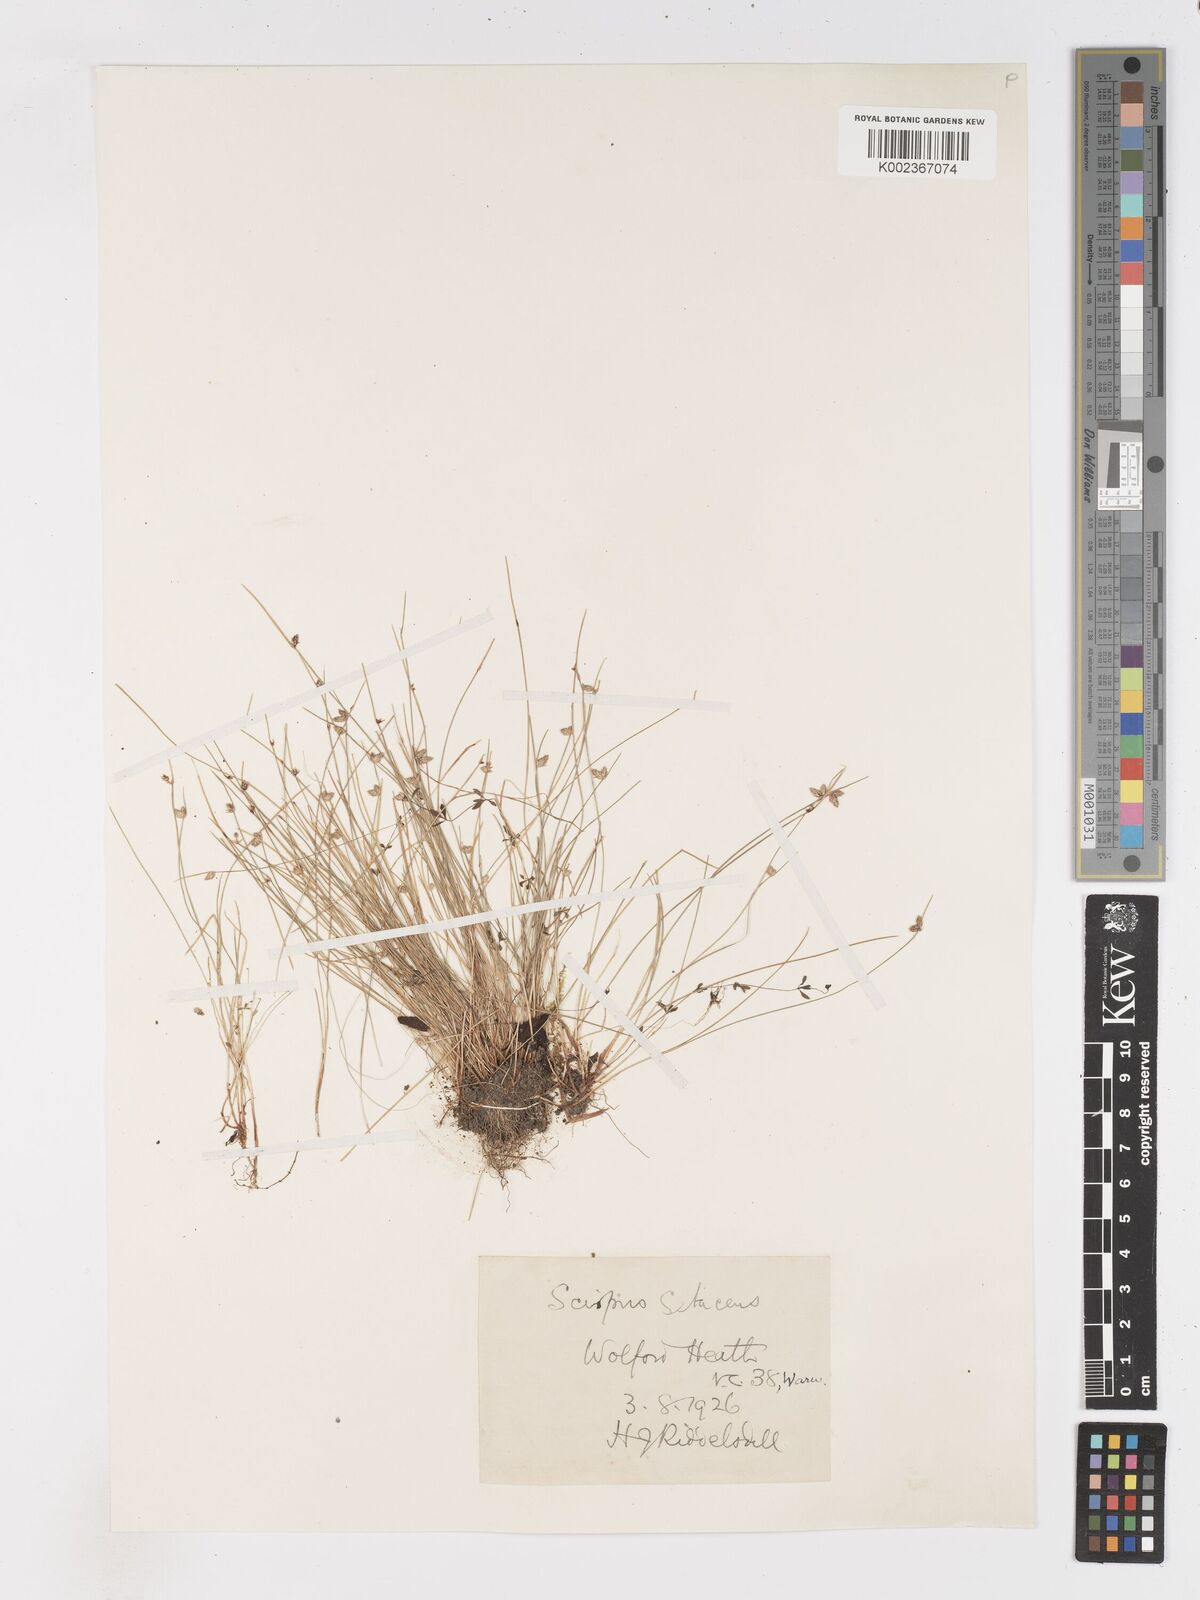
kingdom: Plantae
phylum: Tracheophyta
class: Liliopsida
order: Poales
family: Cyperaceae
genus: Isolepis
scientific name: Isolepis setacea
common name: Bristle club-rush
